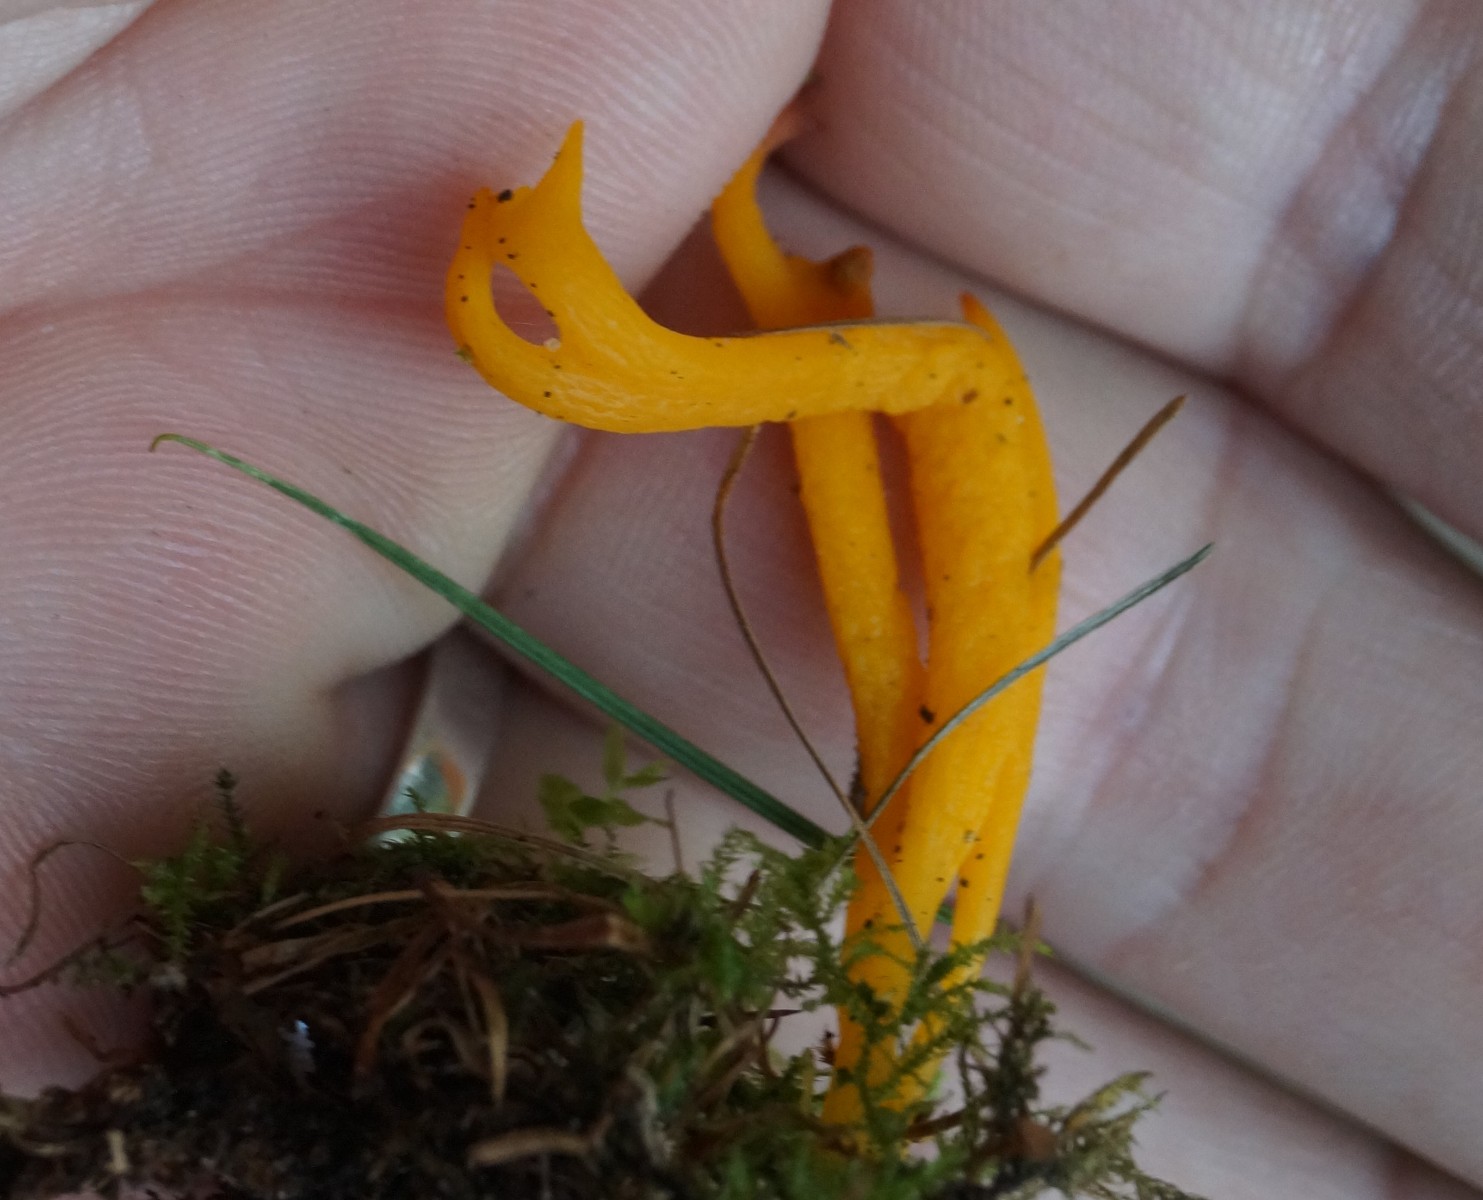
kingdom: Fungi
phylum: Basidiomycota
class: Dacrymycetes
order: Dacrymycetales
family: Dacrymycetaceae
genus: Calocera
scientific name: Calocera viscosa
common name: almindelig guldgaffel
